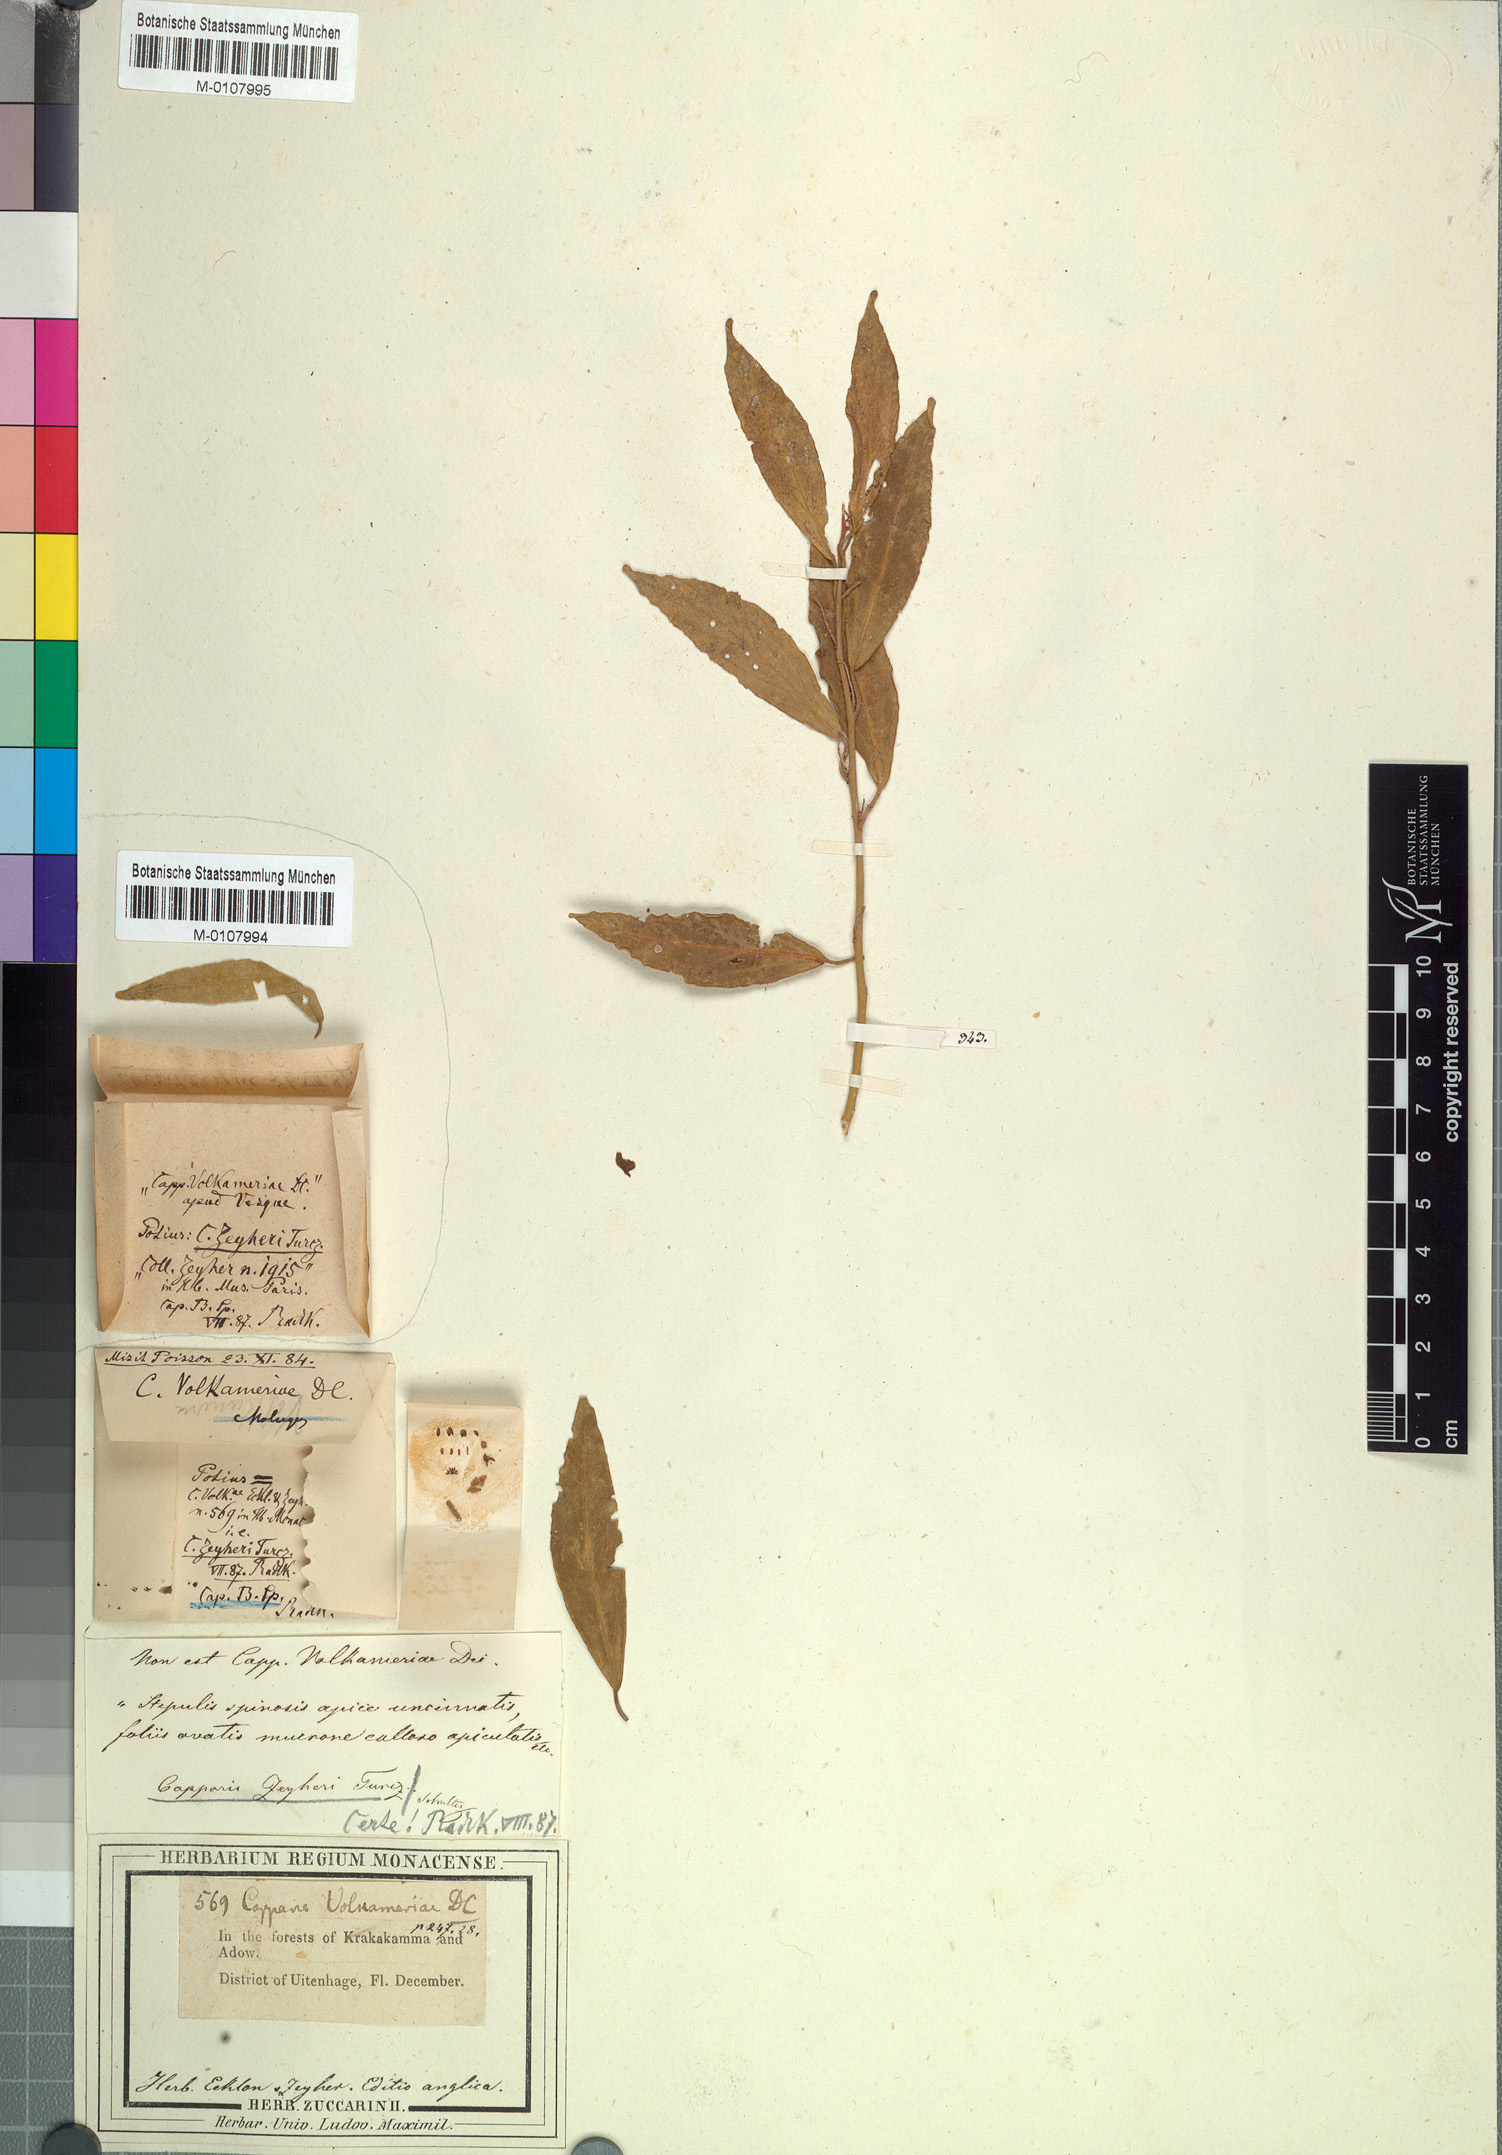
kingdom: Plantae
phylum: Tracheophyta
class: Magnoliopsida
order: Brassicales
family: Capparaceae
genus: Capparis
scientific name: Capparis fascicularis
